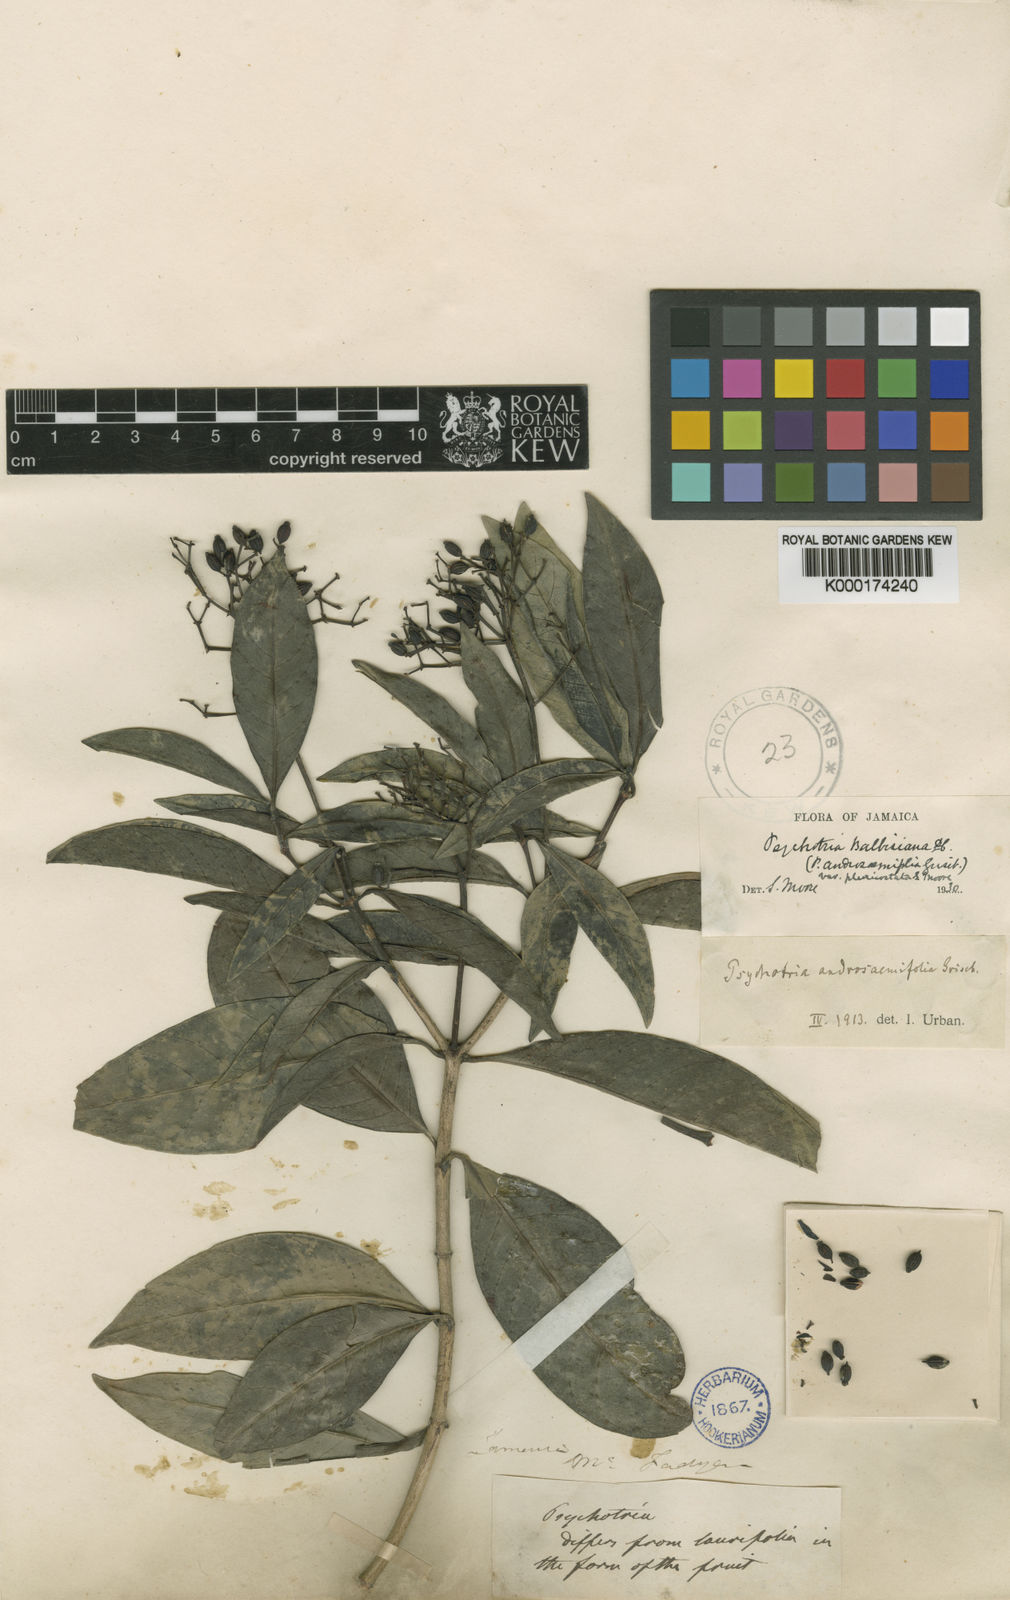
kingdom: Plantae
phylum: Tracheophyta
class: Magnoliopsida
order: Gentianales
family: Rubiaceae
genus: Psychotria
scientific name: Psychotria balbisiana
